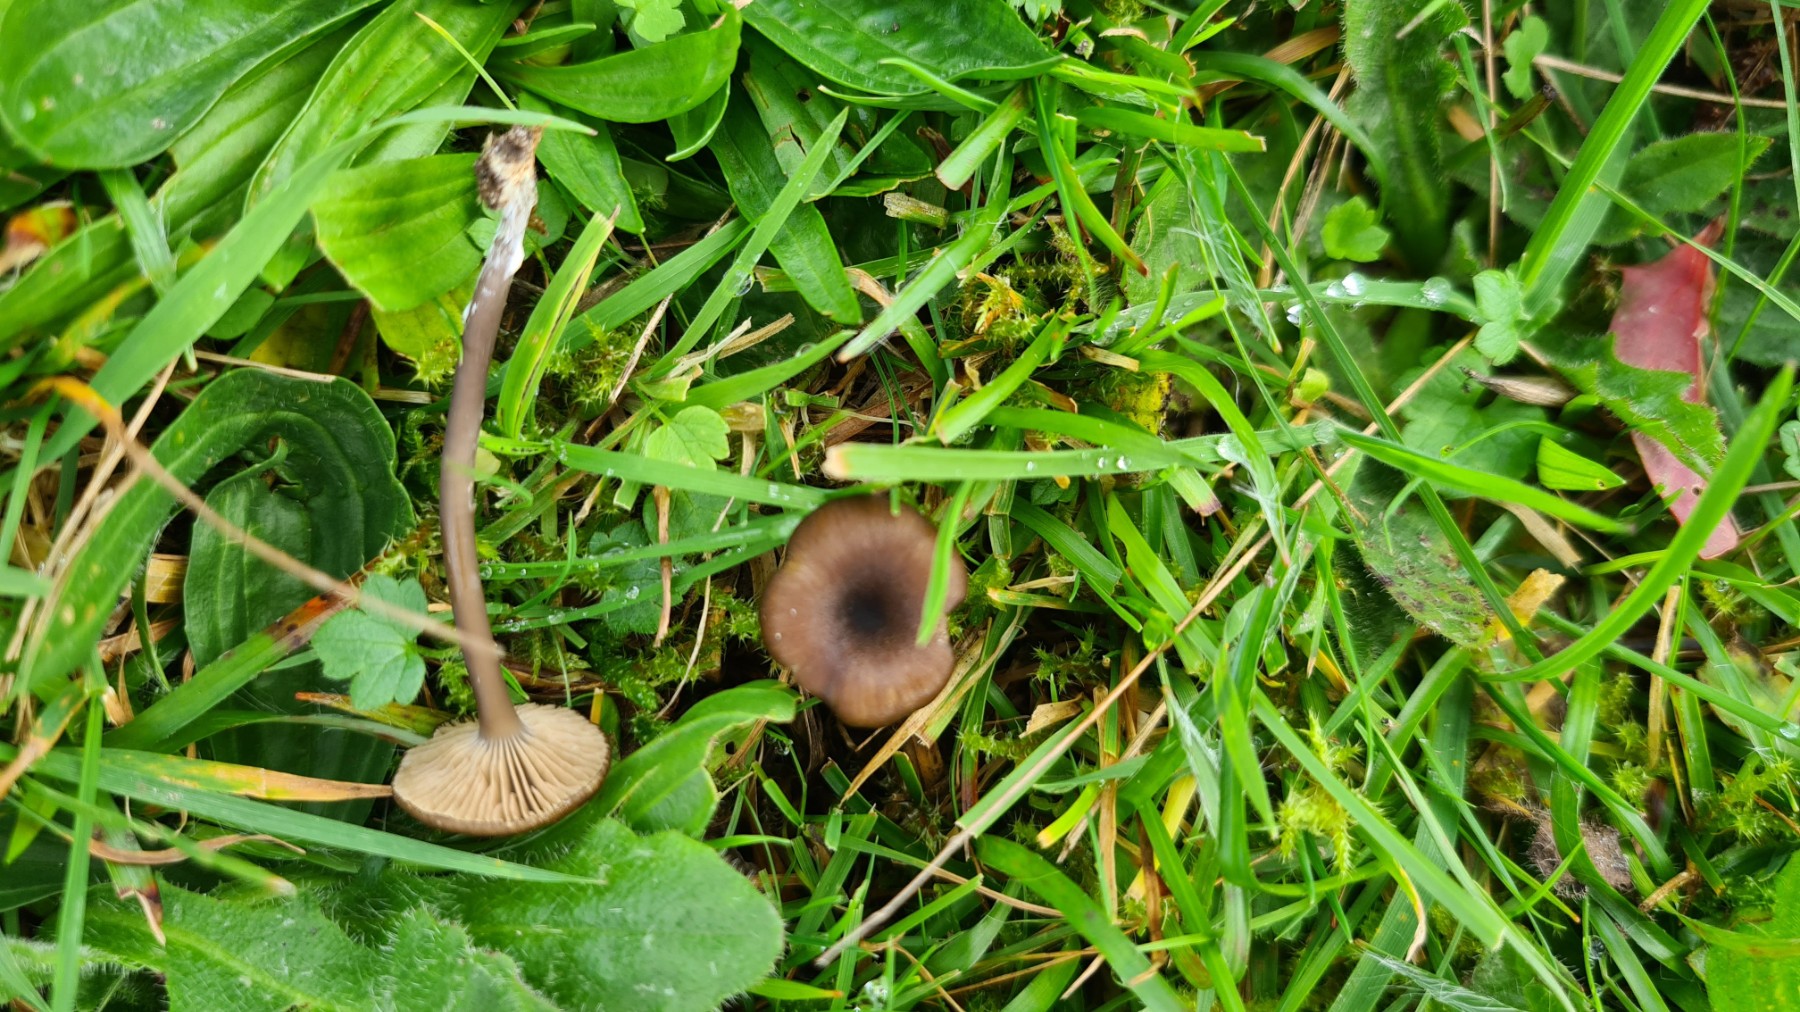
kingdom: Fungi
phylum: Basidiomycota
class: Agaricomycetes
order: Agaricales
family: Entolomataceae
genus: Entoloma
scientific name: Entoloma
